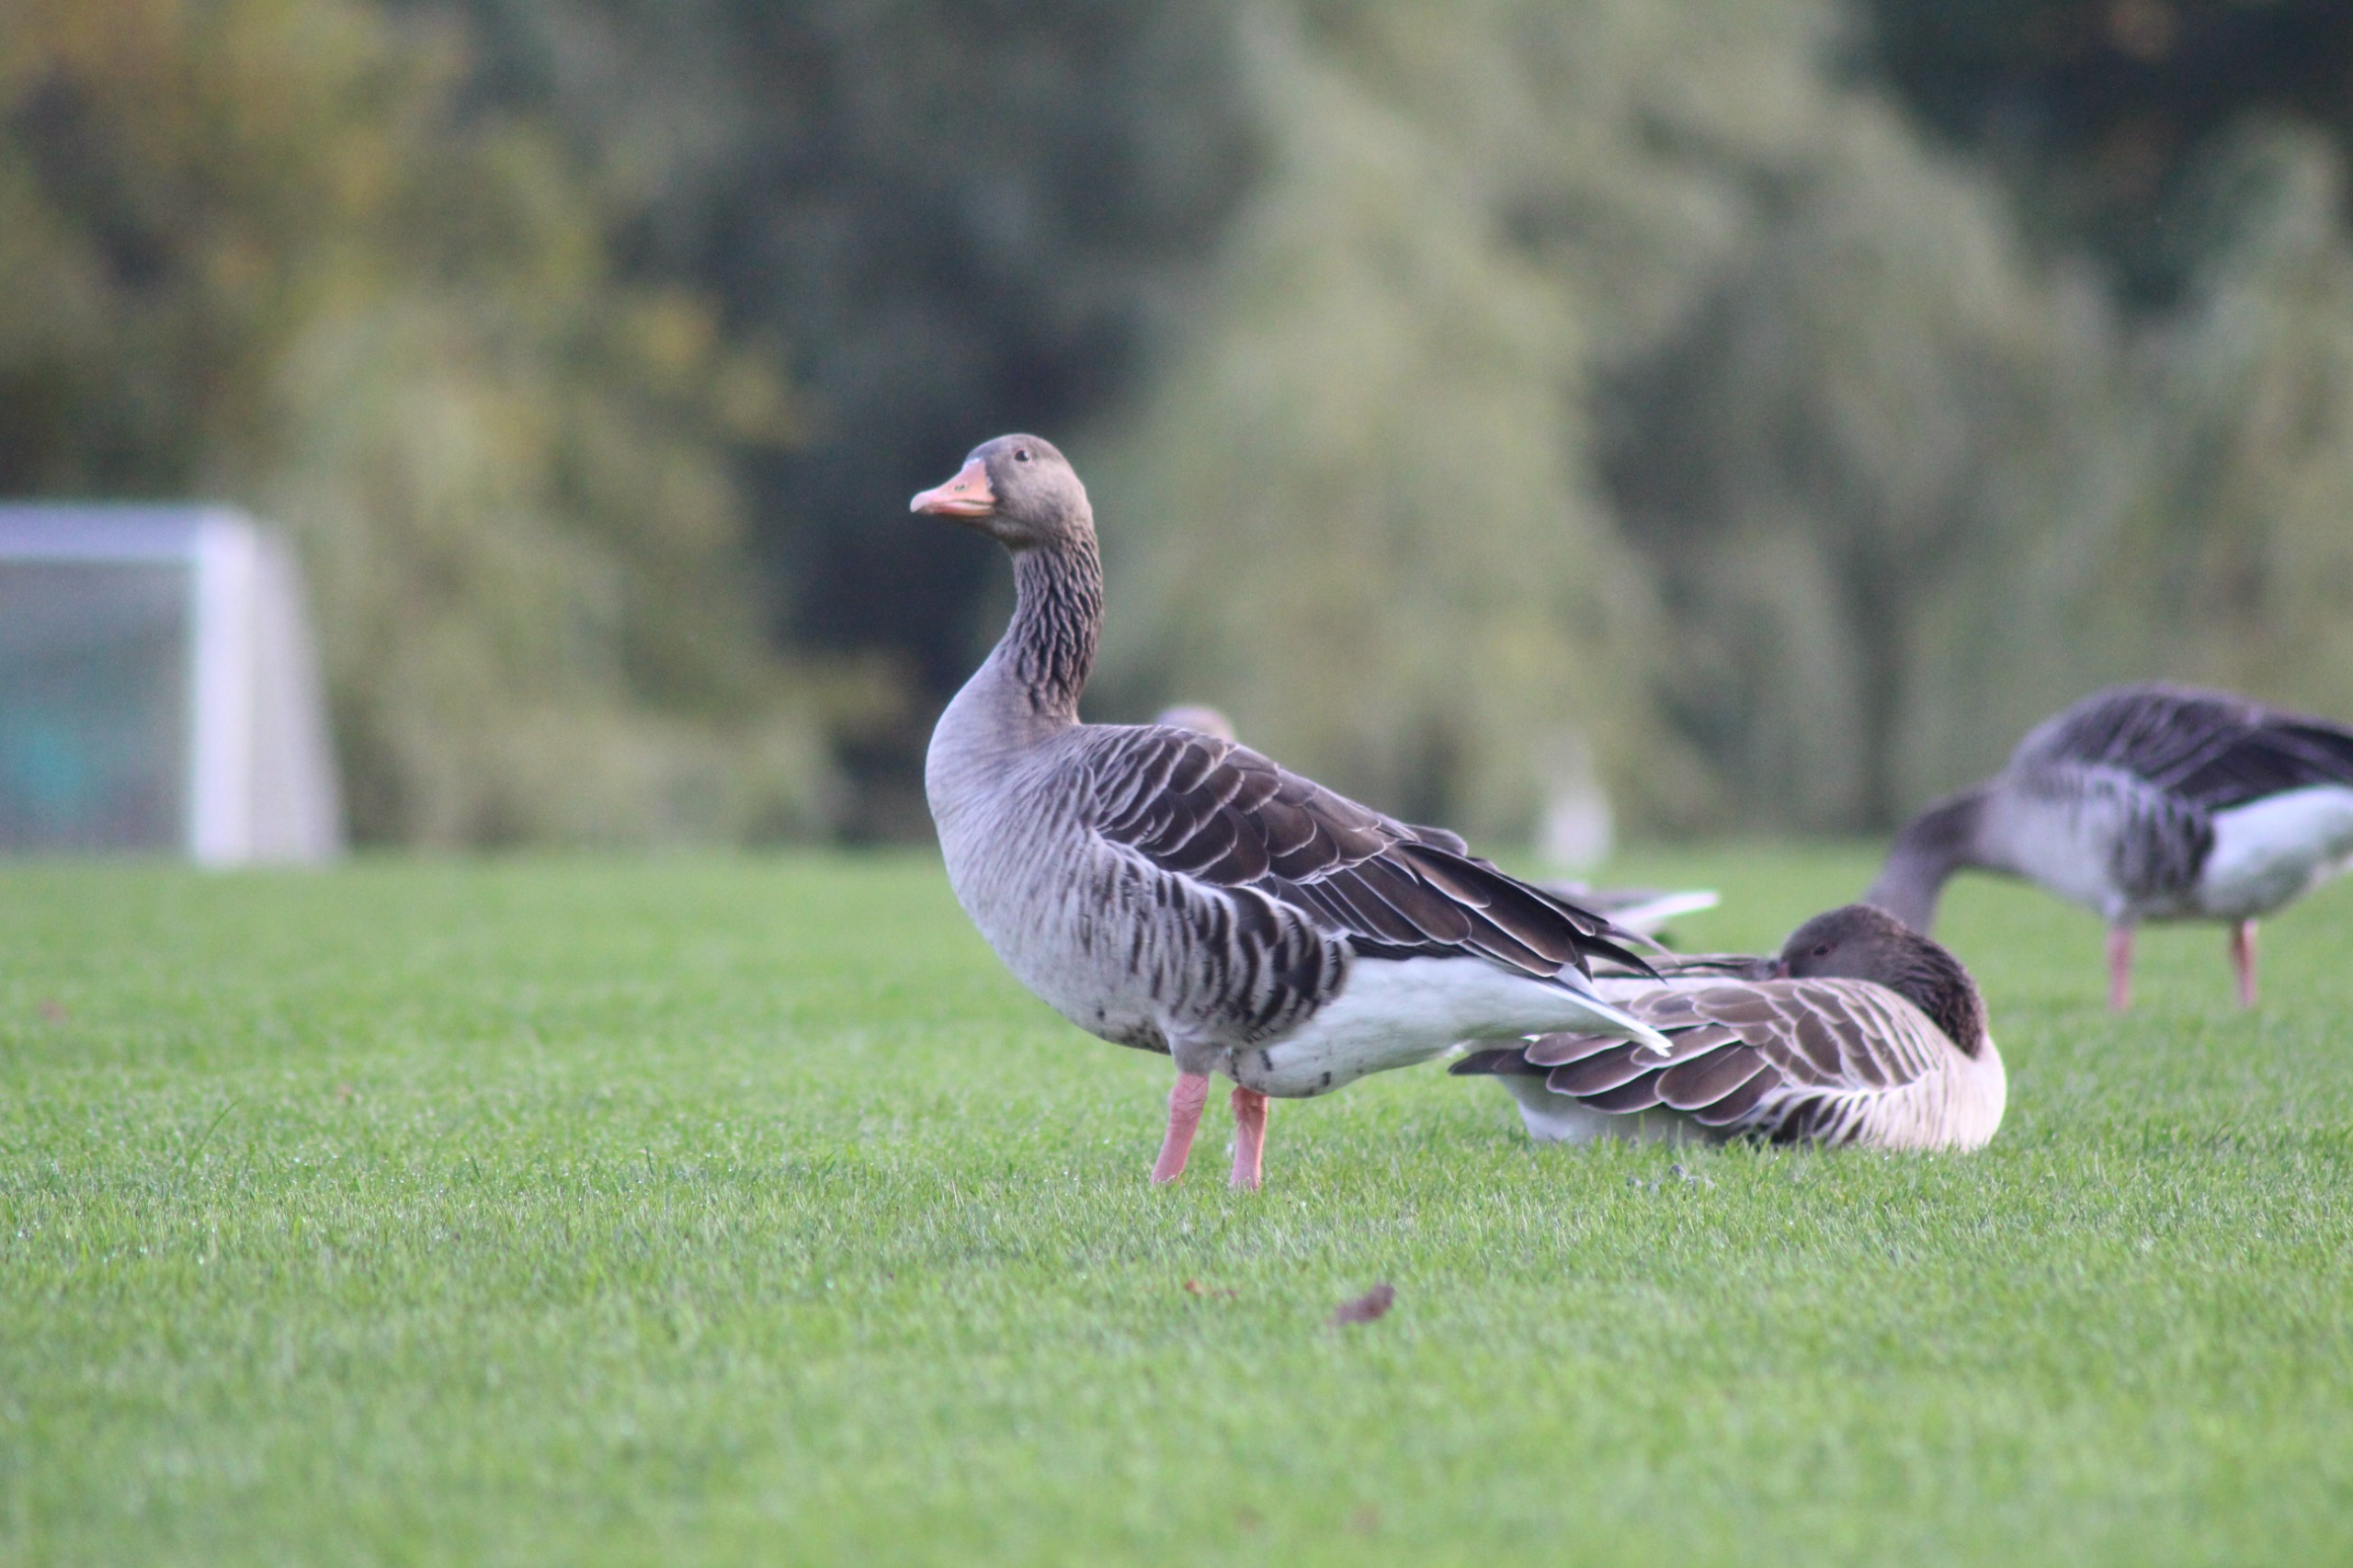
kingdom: Animalia
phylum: Chordata
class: Aves
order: Anseriformes
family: Anatidae
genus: Anser
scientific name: Anser anser
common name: Grågås
